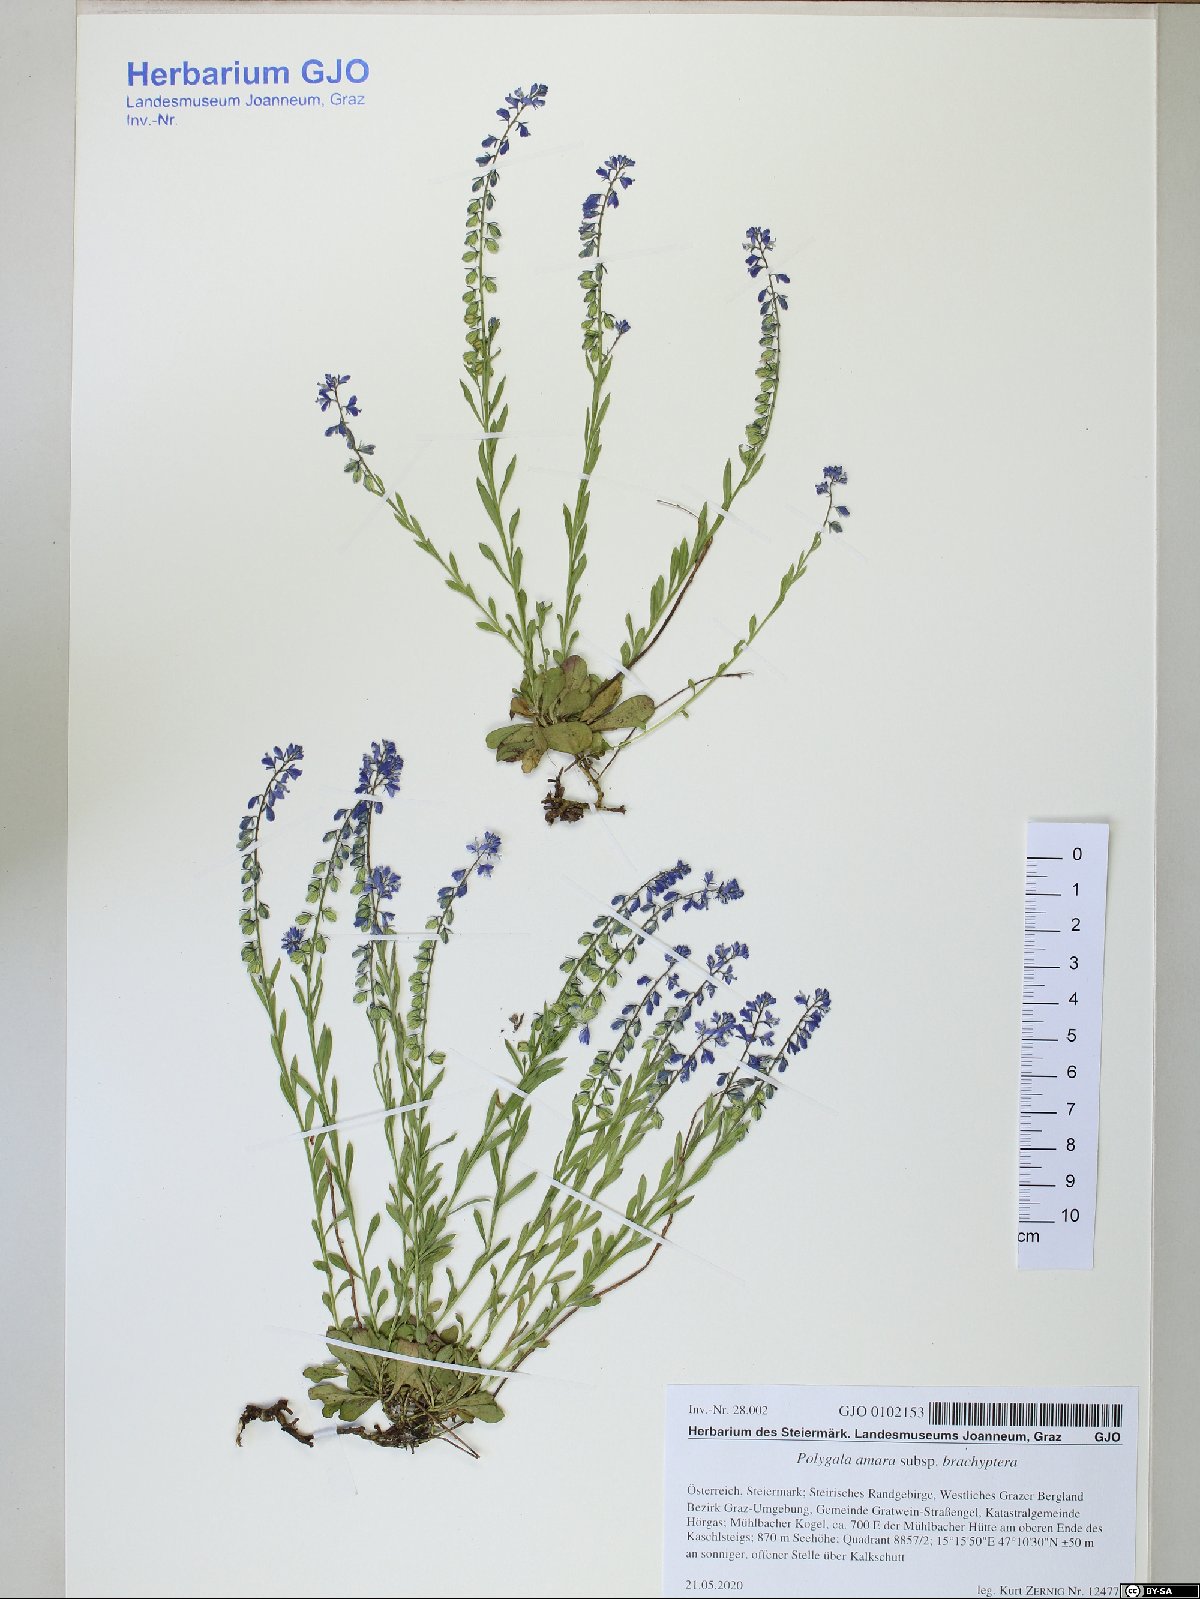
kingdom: Plantae
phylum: Tracheophyta
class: Magnoliopsida
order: Fabales
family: Polygalaceae
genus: Polygala
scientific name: Polygala amara
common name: Milkwort
